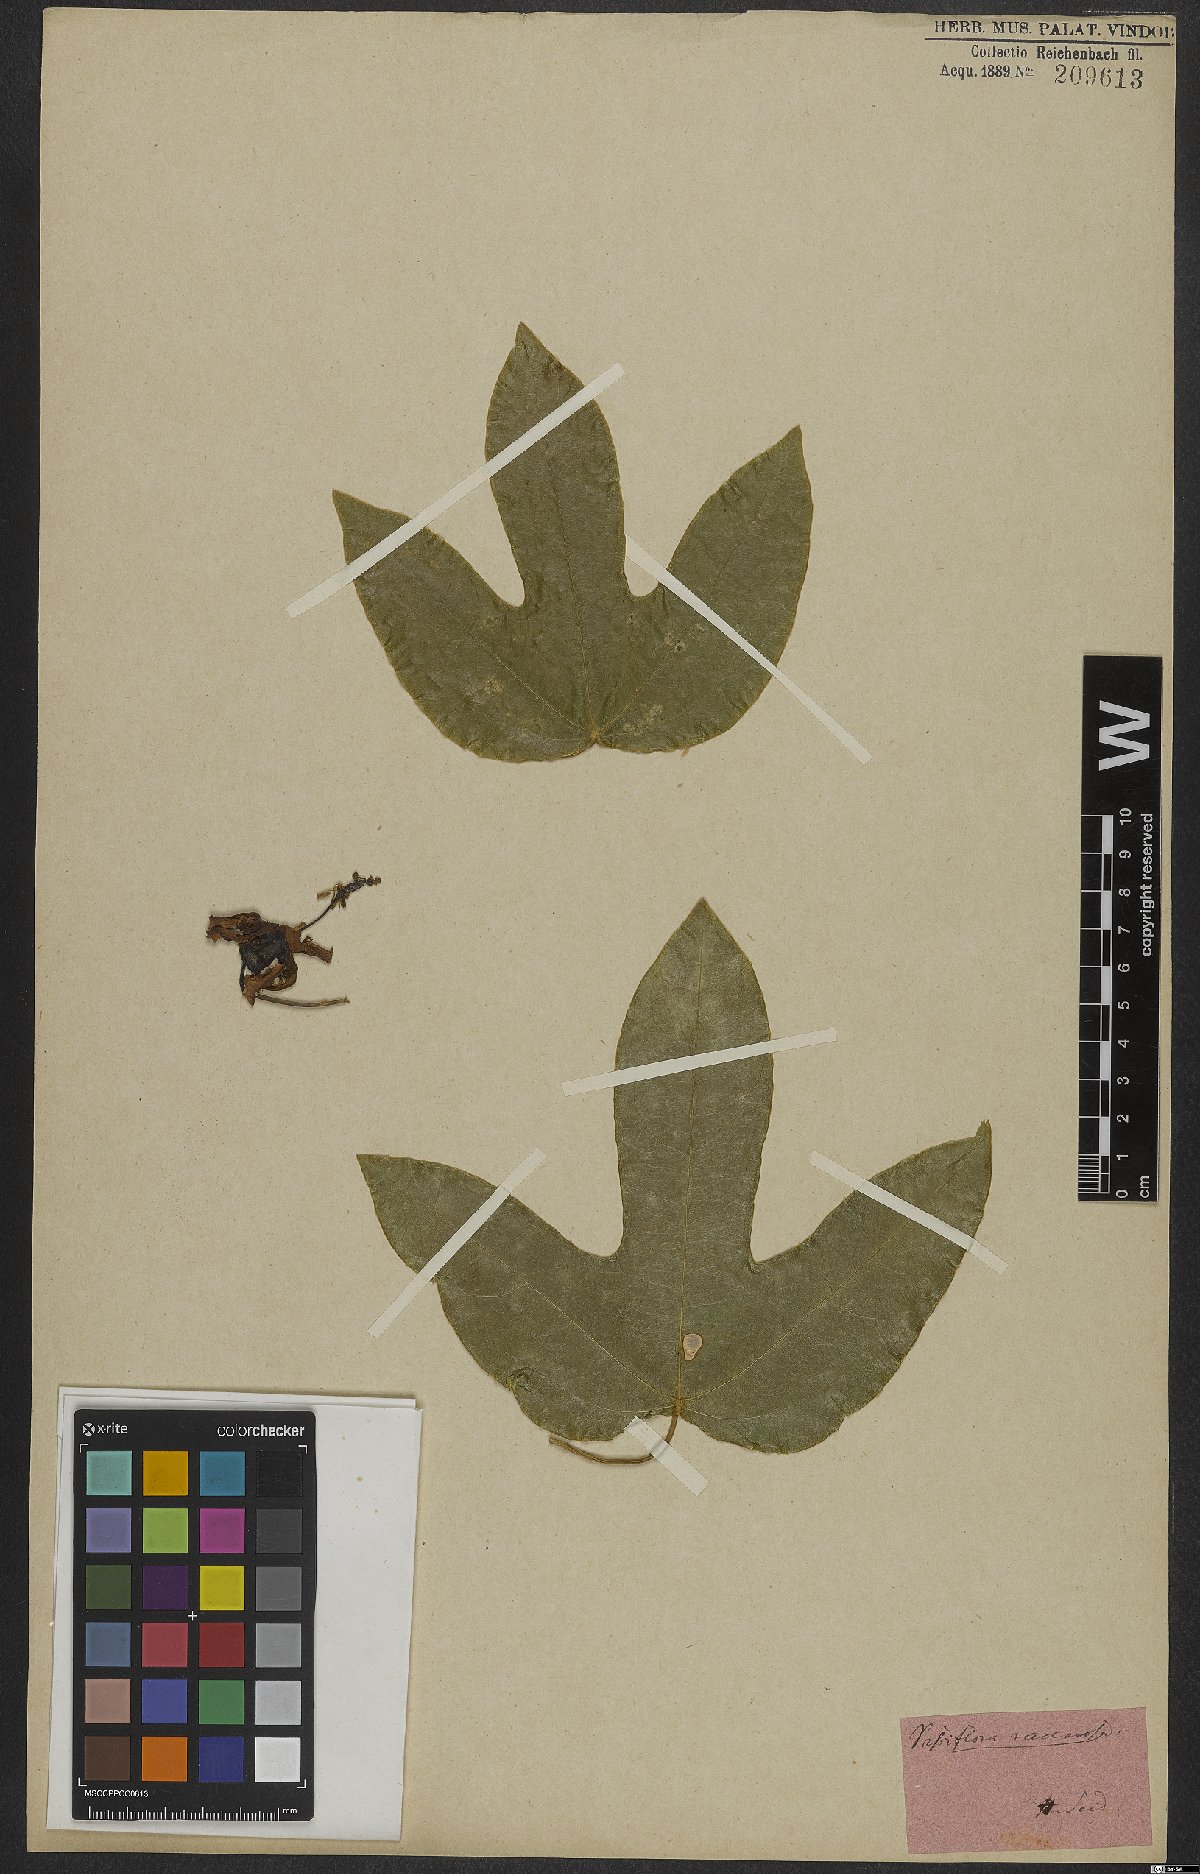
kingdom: Plantae
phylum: Tracheophyta
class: Magnoliopsida
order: Malpighiales
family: Passifloraceae
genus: Passiflora
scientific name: Passiflora racemosa
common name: Red passionflower
